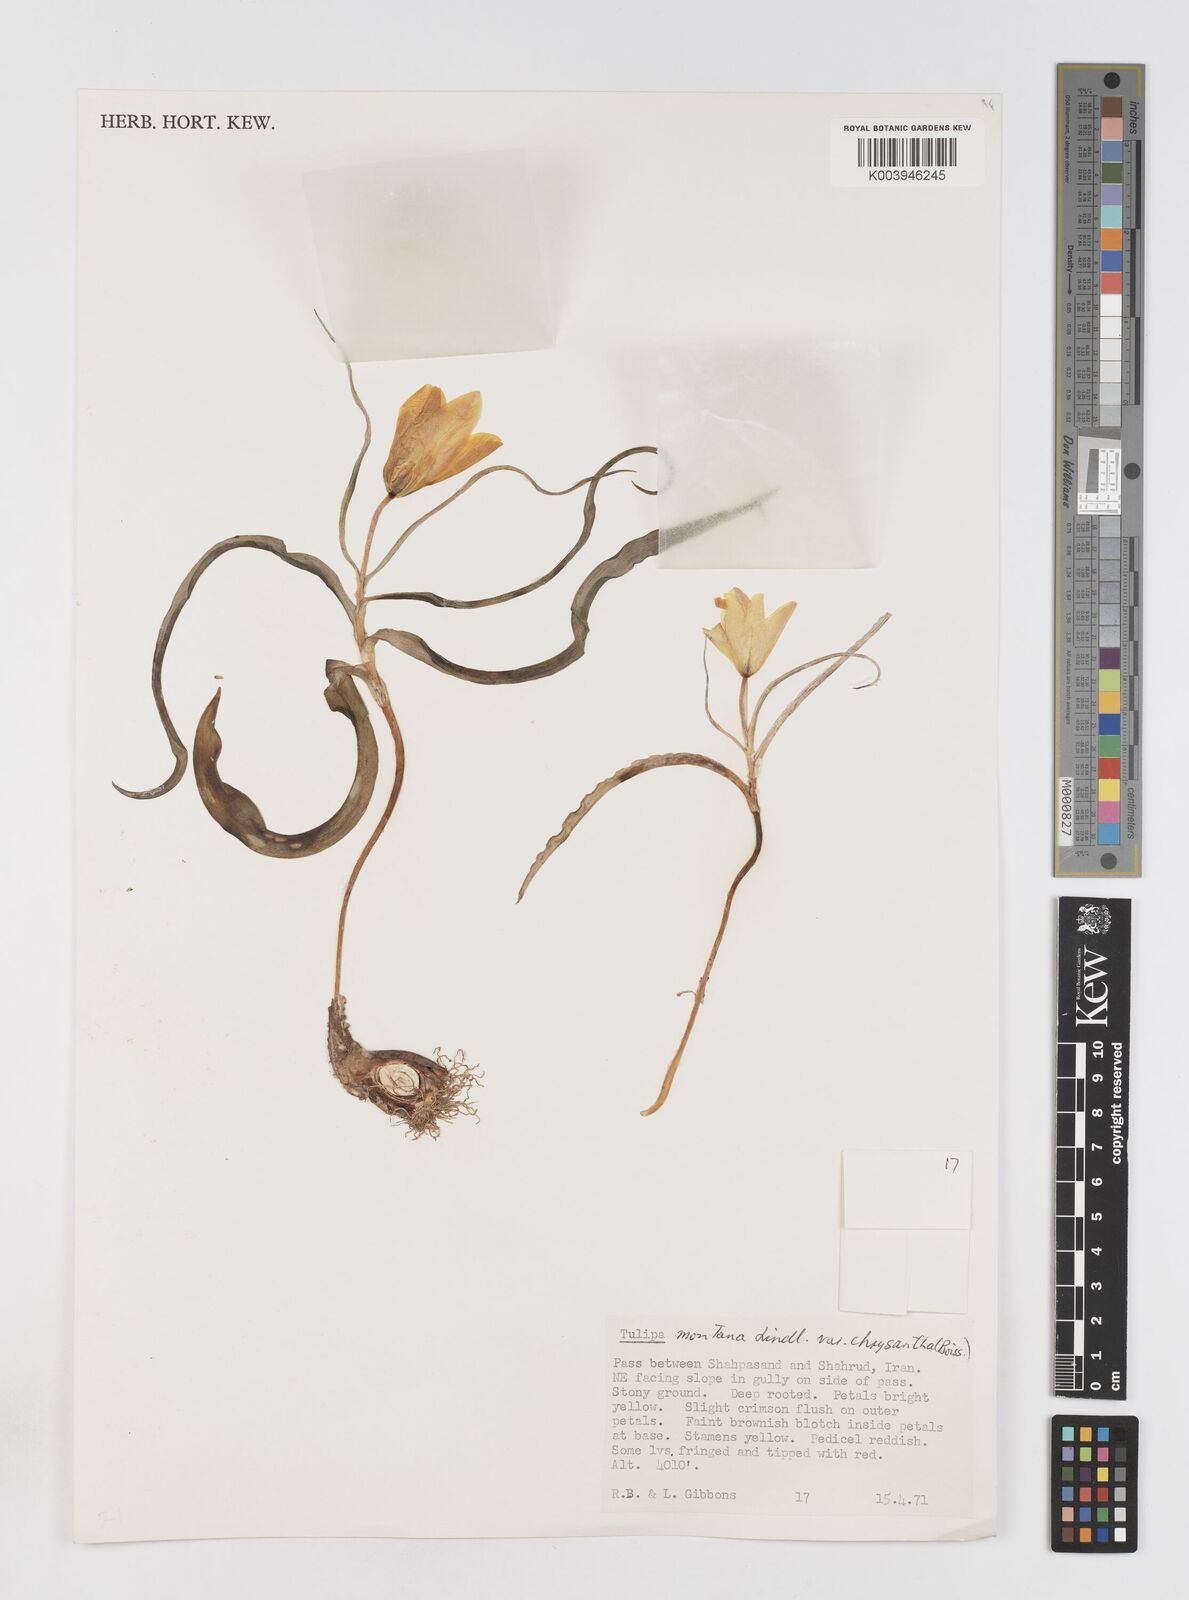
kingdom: Plantae
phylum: Tracheophyta
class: Liliopsida
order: Liliales
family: Liliaceae
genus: Tulipa
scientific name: Tulipa montana
